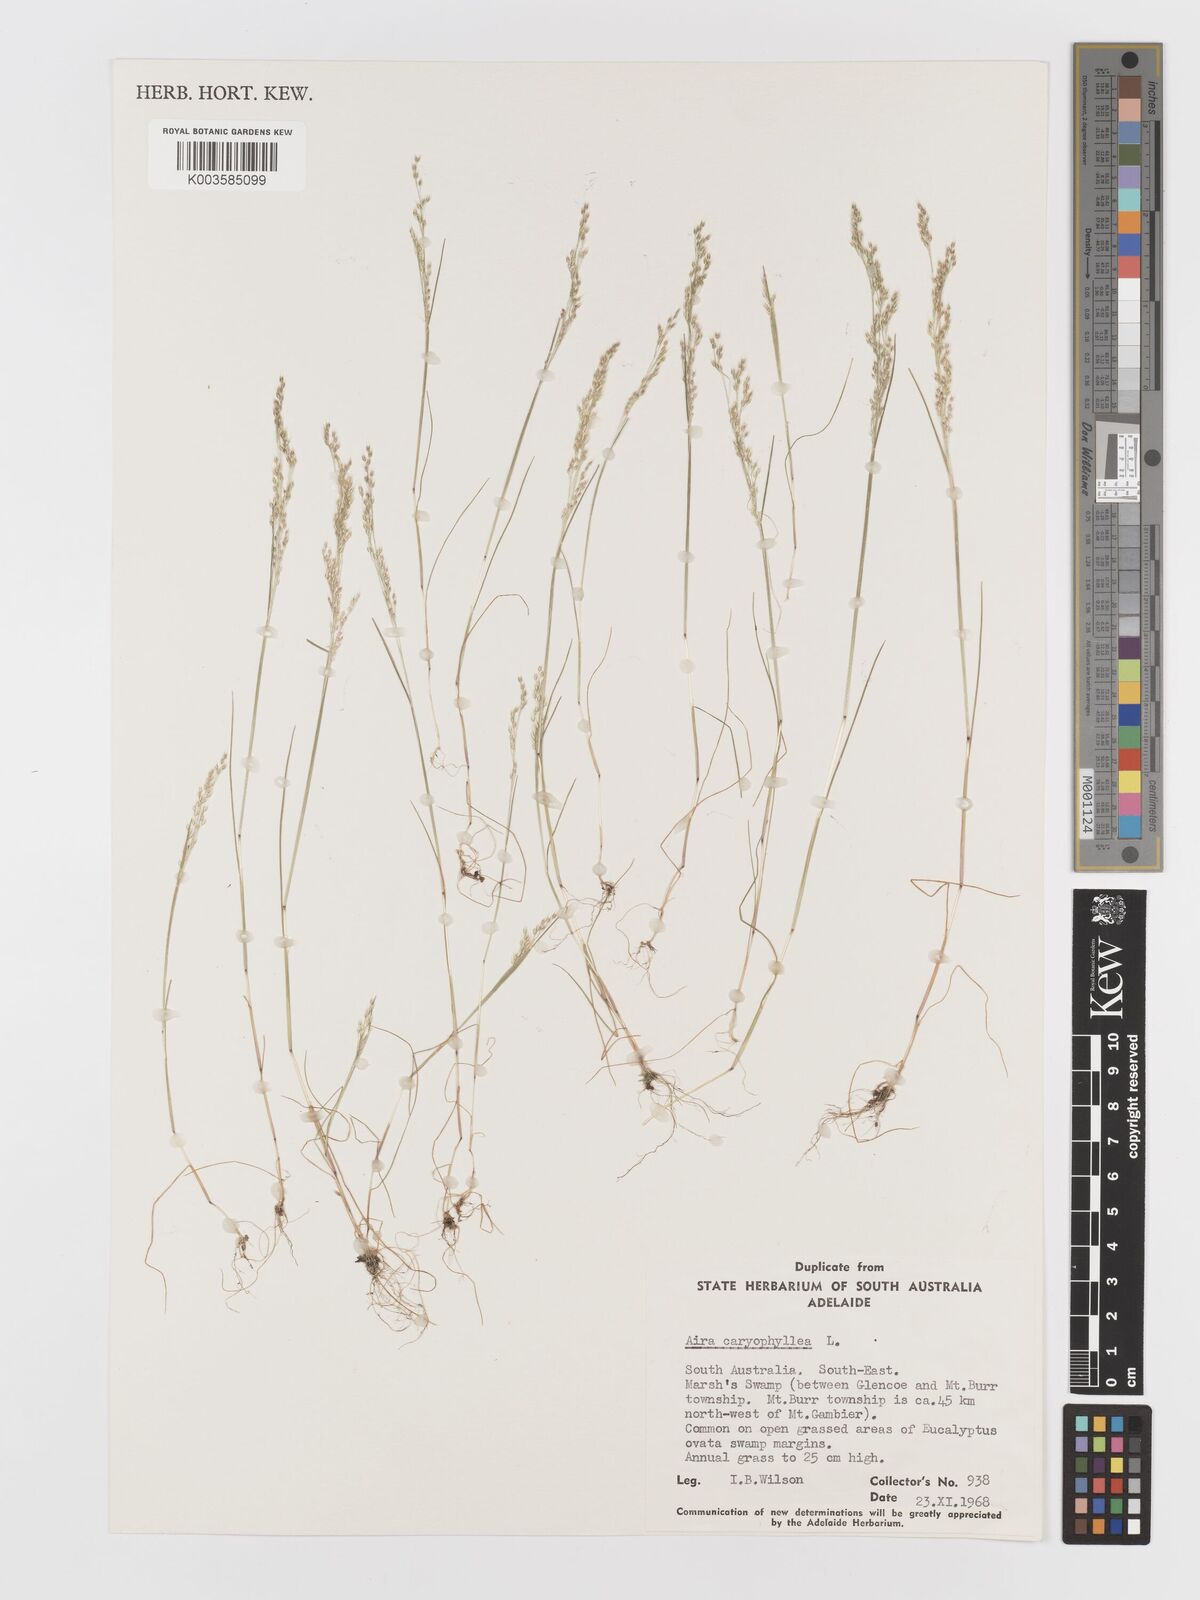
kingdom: Plantae
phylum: Tracheophyta
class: Liliopsida
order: Poales
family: Poaceae
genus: Aira
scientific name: Aira caryophyllea
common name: Silver hairgrass
